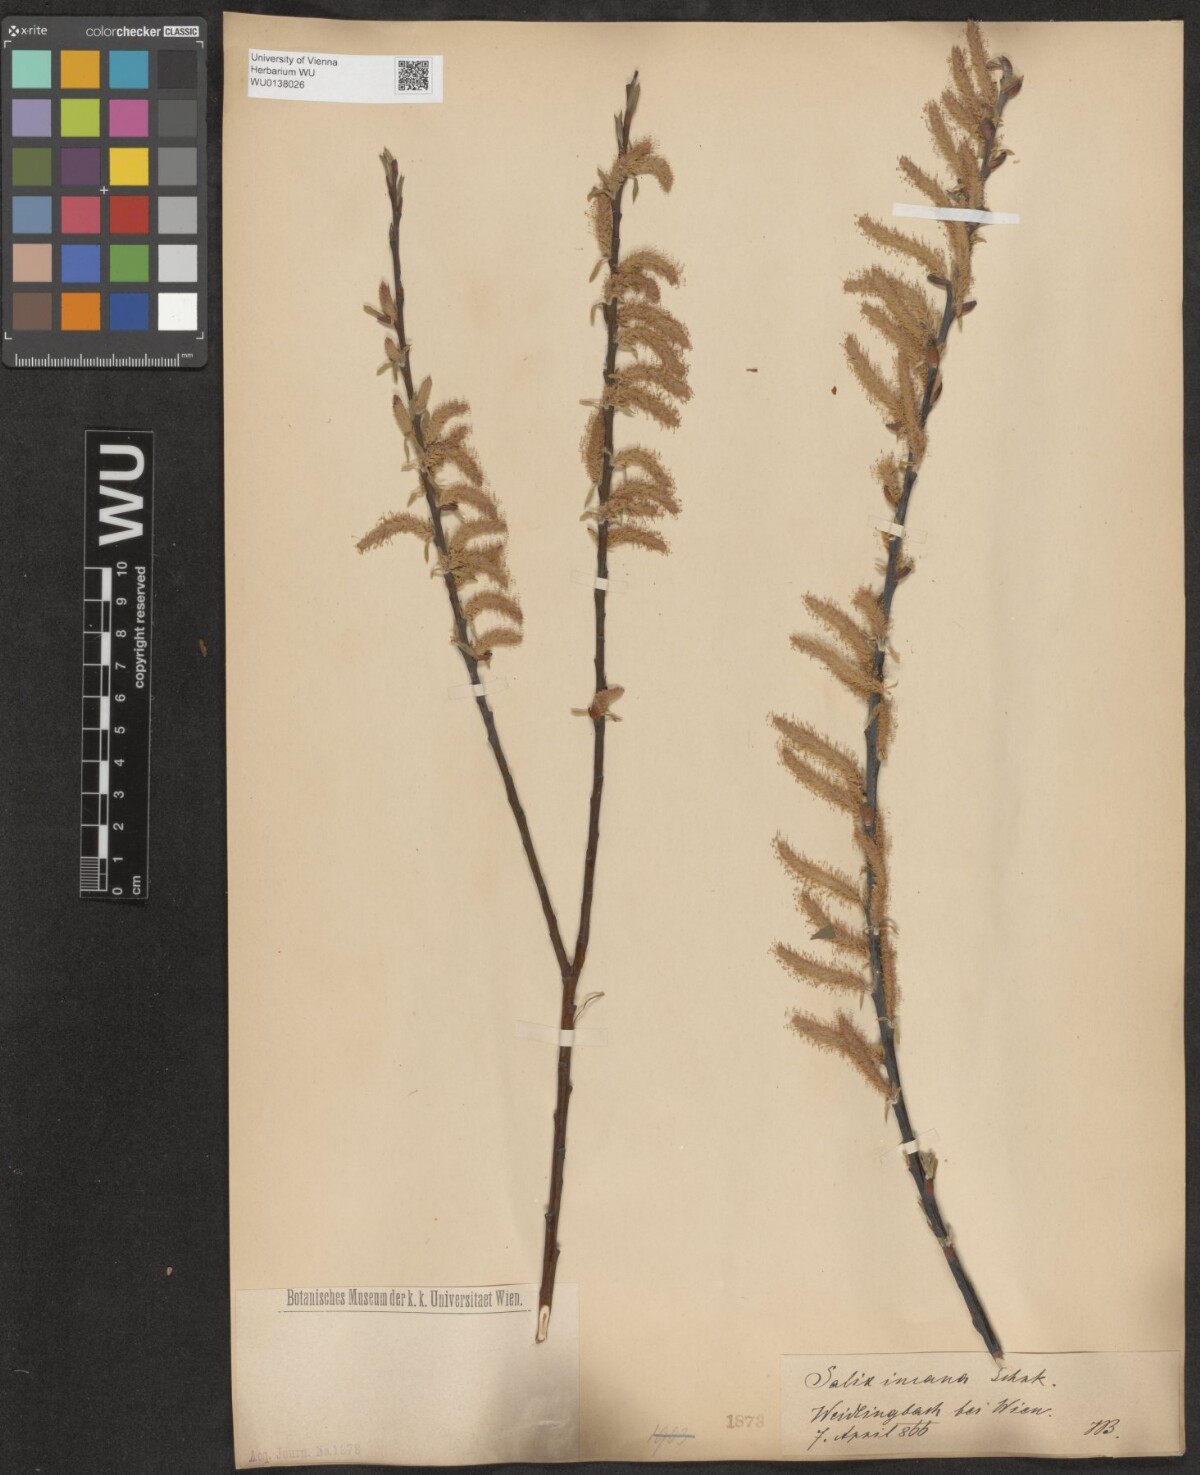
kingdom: Plantae
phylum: Tracheophyta
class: Magnoliopsida
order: Malpighiales
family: Salicaceae
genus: Salix
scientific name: Salix eleagnos
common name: Elaeagnus willow
